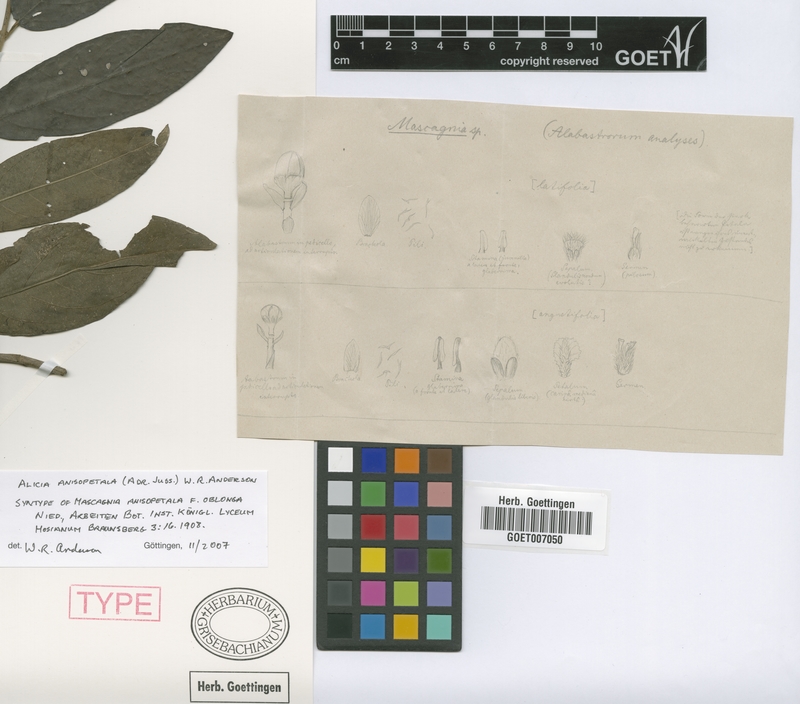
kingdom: Plantae
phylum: Tracheophyta
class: Magnoliopsida
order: Malpighiales
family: Malpighiaceae
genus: Alicia
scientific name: Alicia anisopetala
